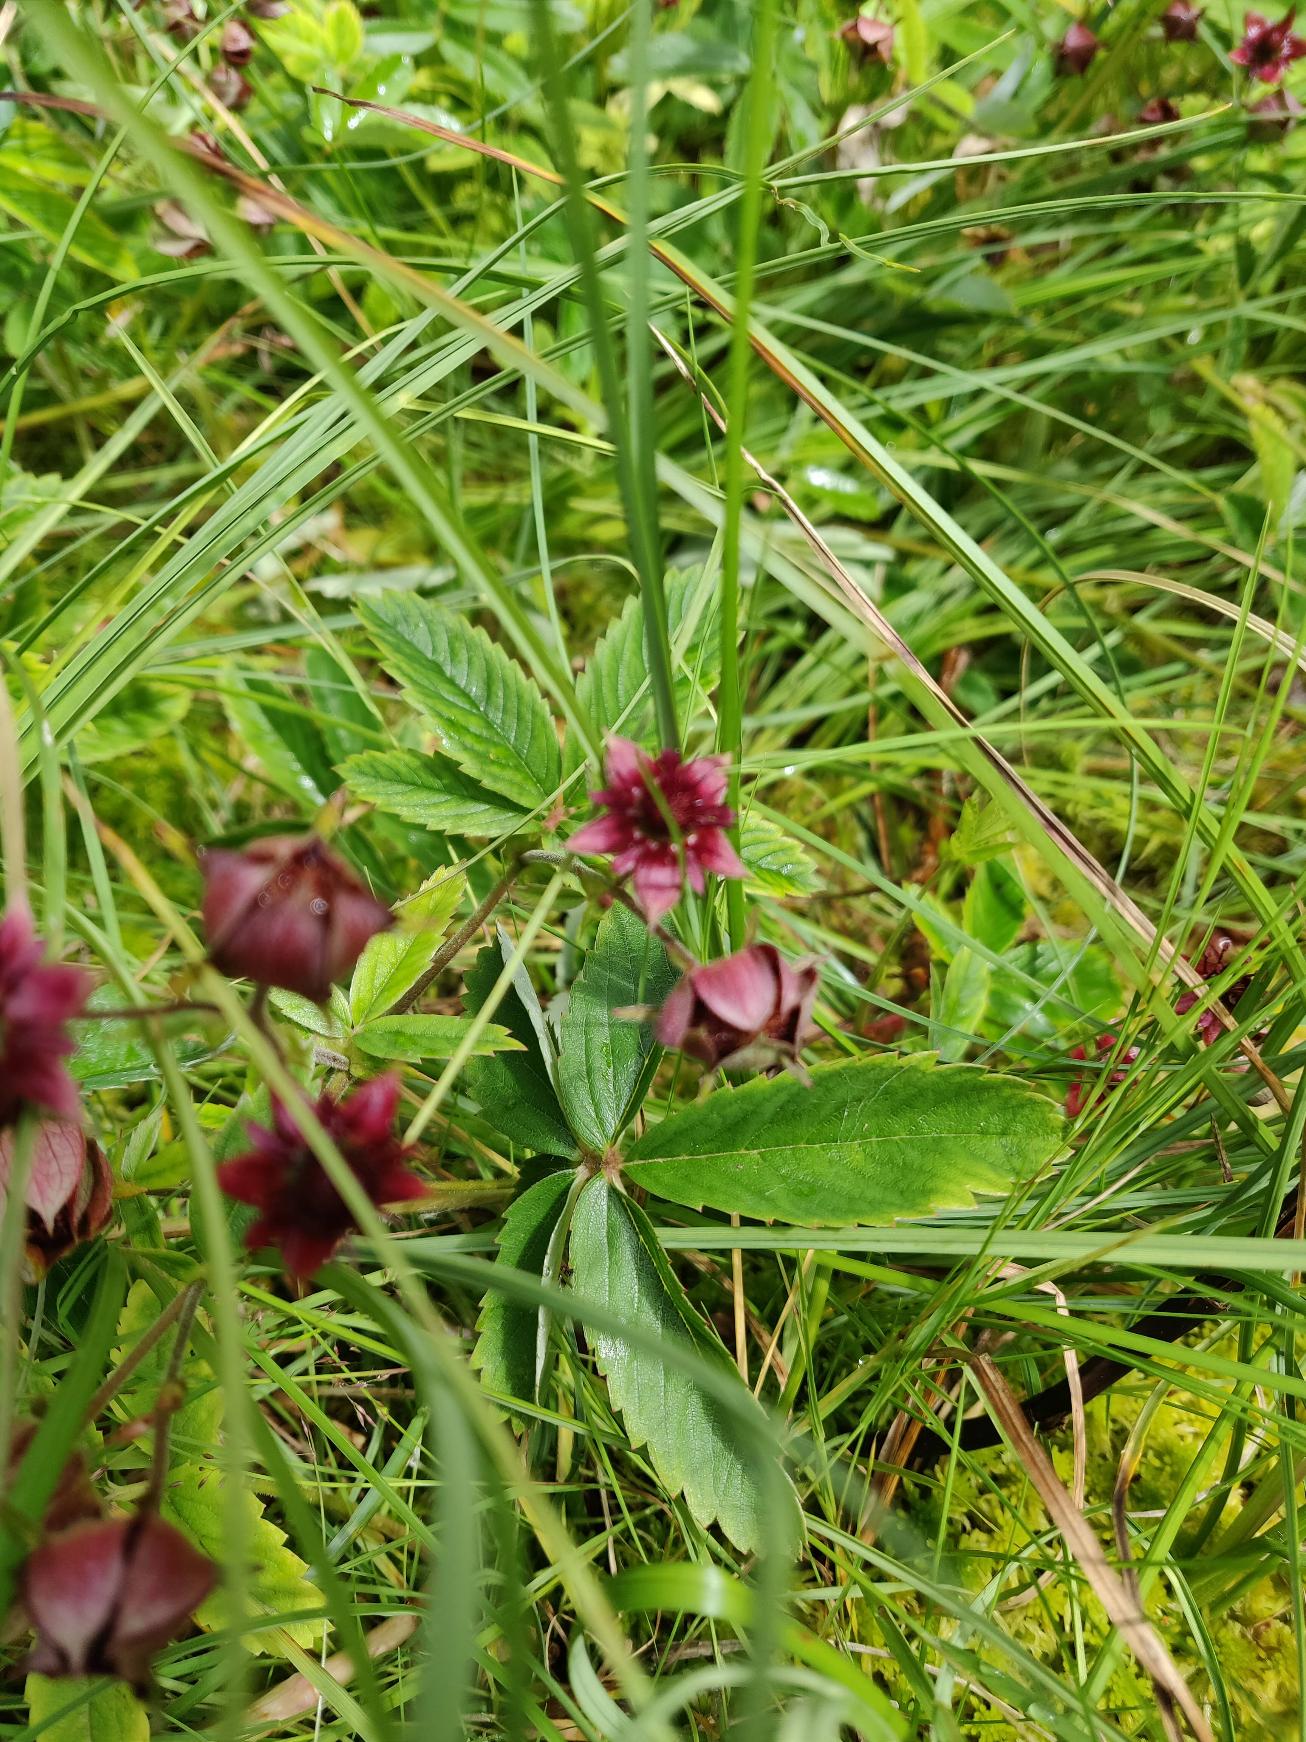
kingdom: Plantae
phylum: Tracheophyta
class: Magnoliopsida
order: Rosales
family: Rosaceae
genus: Comarum
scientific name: Comarum palustre
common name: Kragefod
